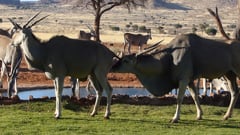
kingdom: Animalia
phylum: Chordata
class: Mammalia
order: Artiodactyla
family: Bovidae
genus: Taurotragus
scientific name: Taurotragus oryx
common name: Common eland
